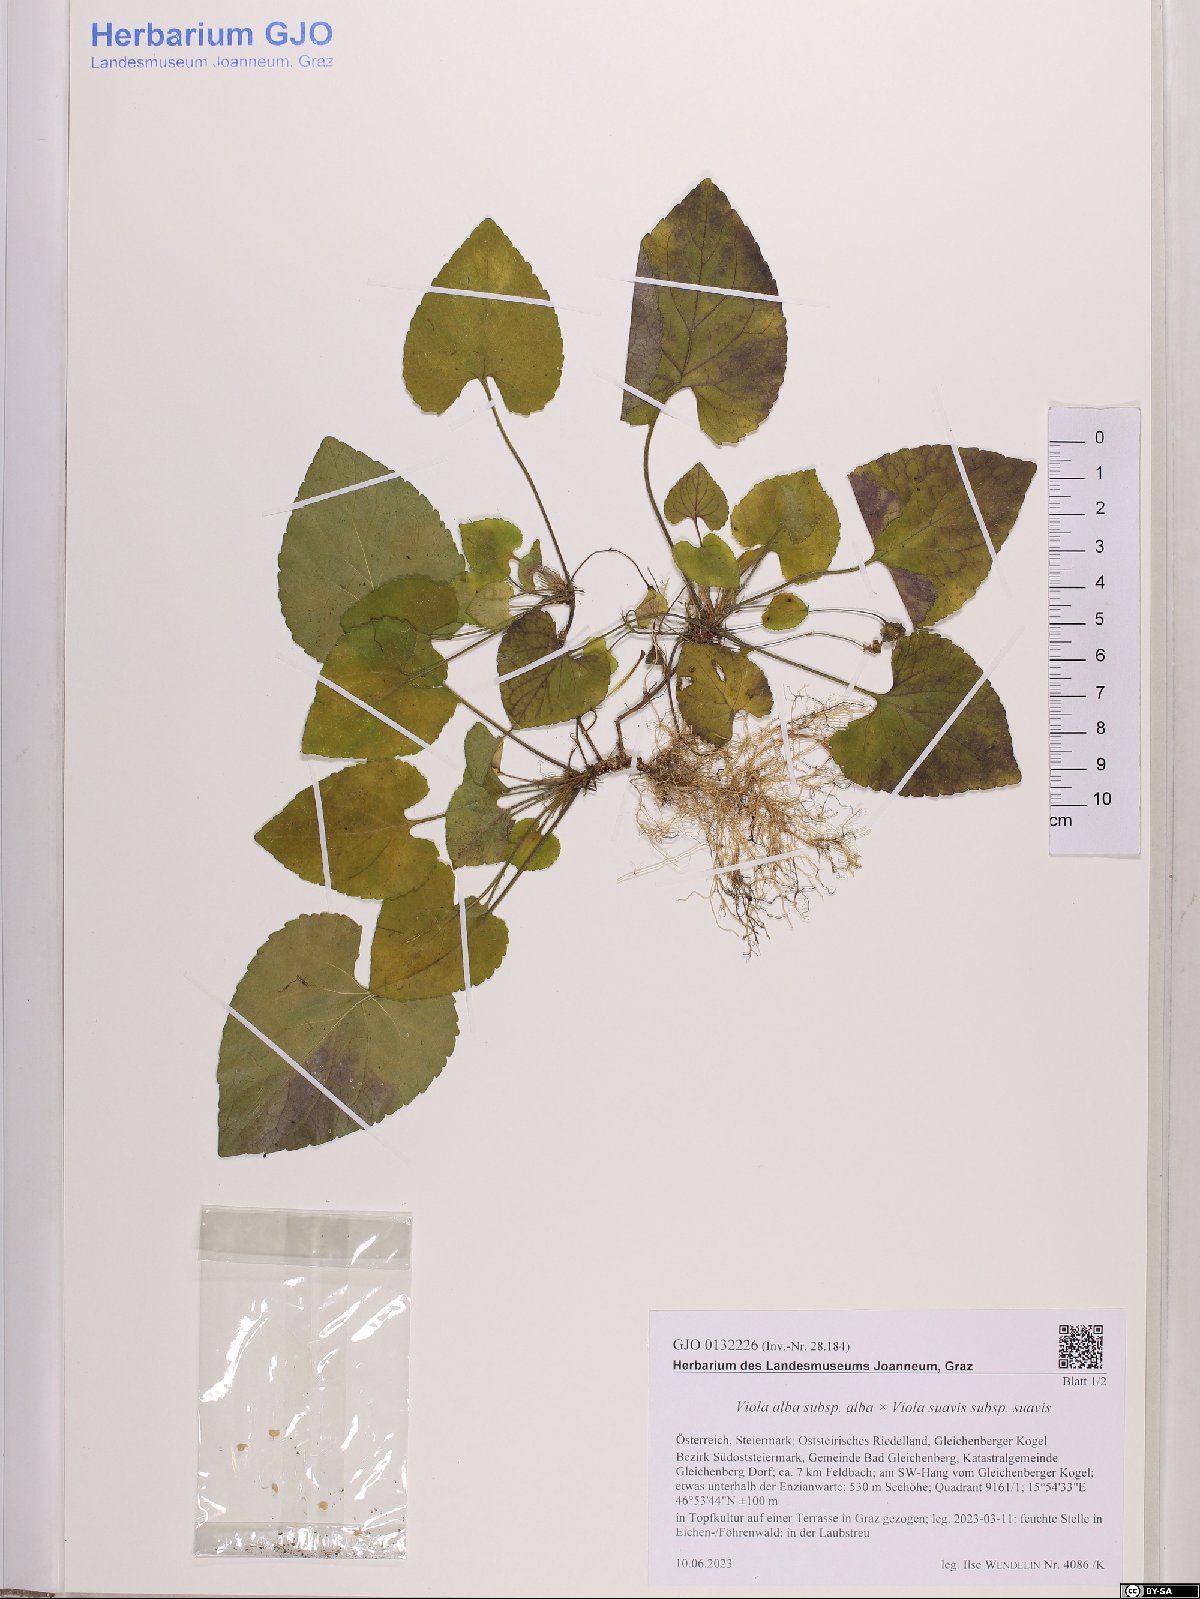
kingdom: Plantae
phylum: Tracheophyta
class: Magnoliopsida
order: Malpighiales
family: Violaceae
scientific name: Violaceae
